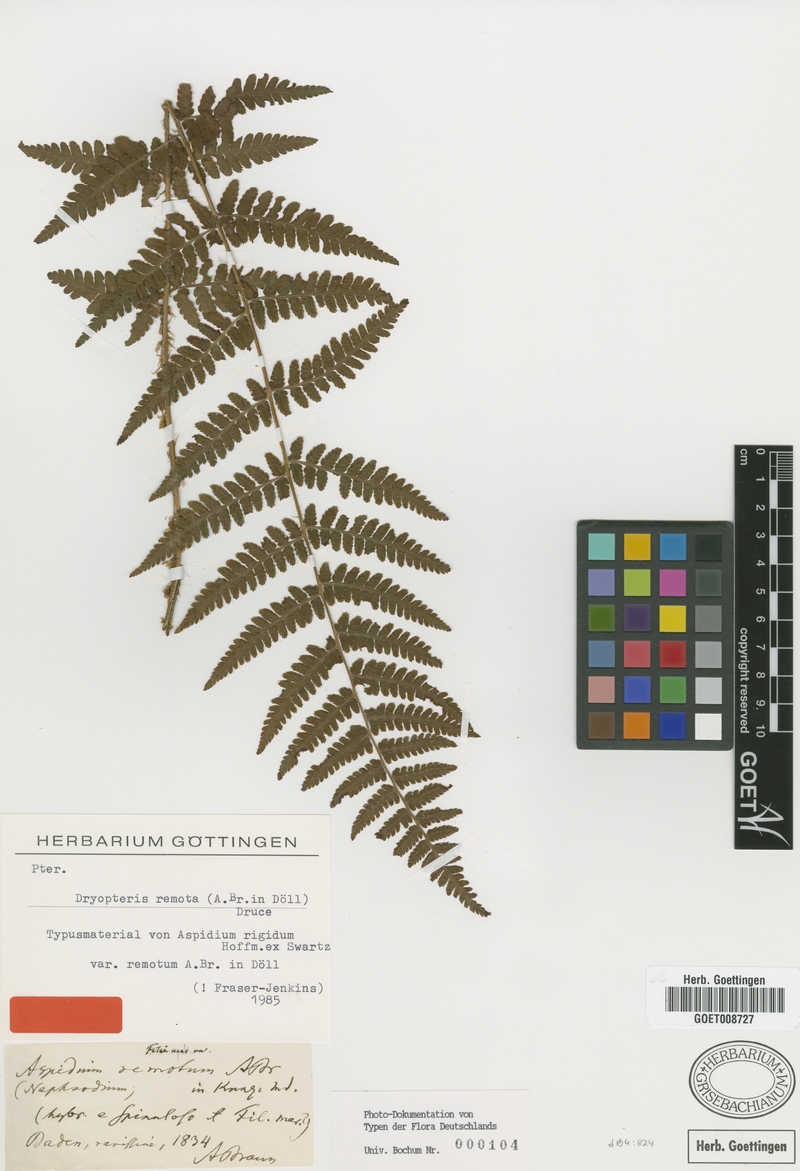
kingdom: Plantae
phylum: Tracheophyta
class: Polypodiopsida
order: Polypodiales
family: Dryopteridaceae
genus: Dryopteris
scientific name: Dryopteris remota
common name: Scaly buckler-fern
